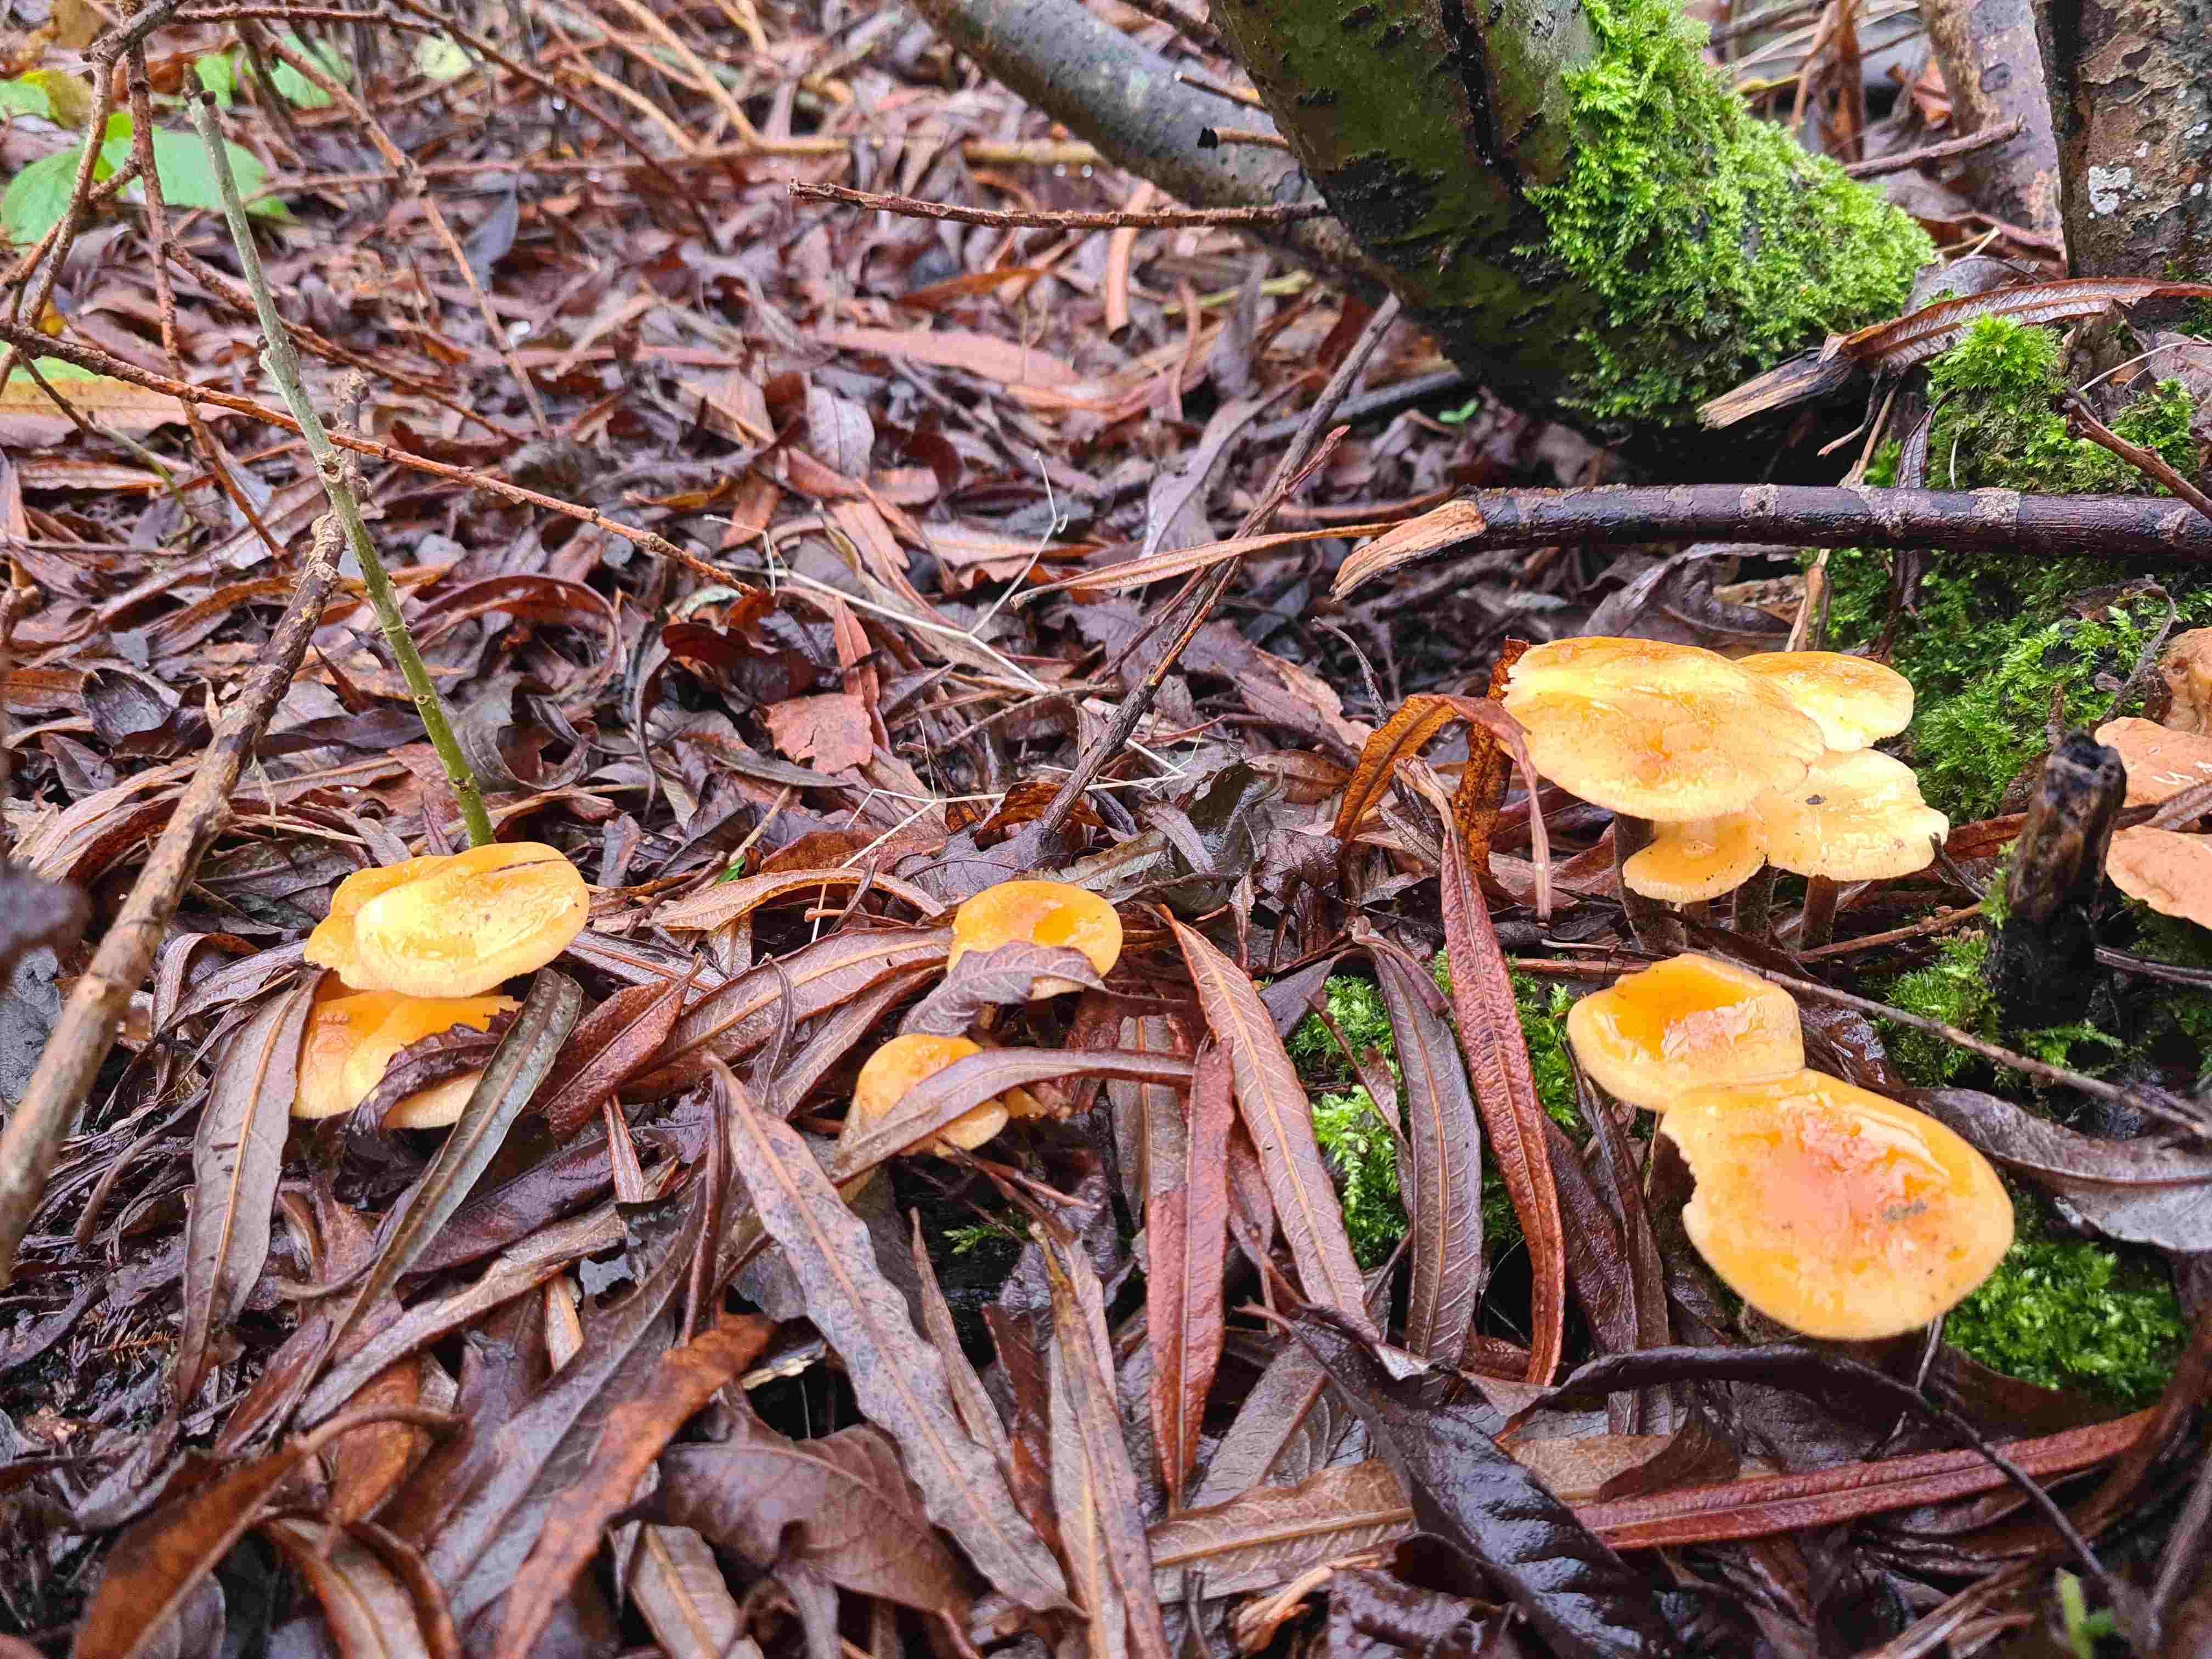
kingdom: Fungi
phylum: Basidiomycota
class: Agaricomycetes
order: Agaricales
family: Physalacriaceae
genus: Flammulina
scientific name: Flammulina
